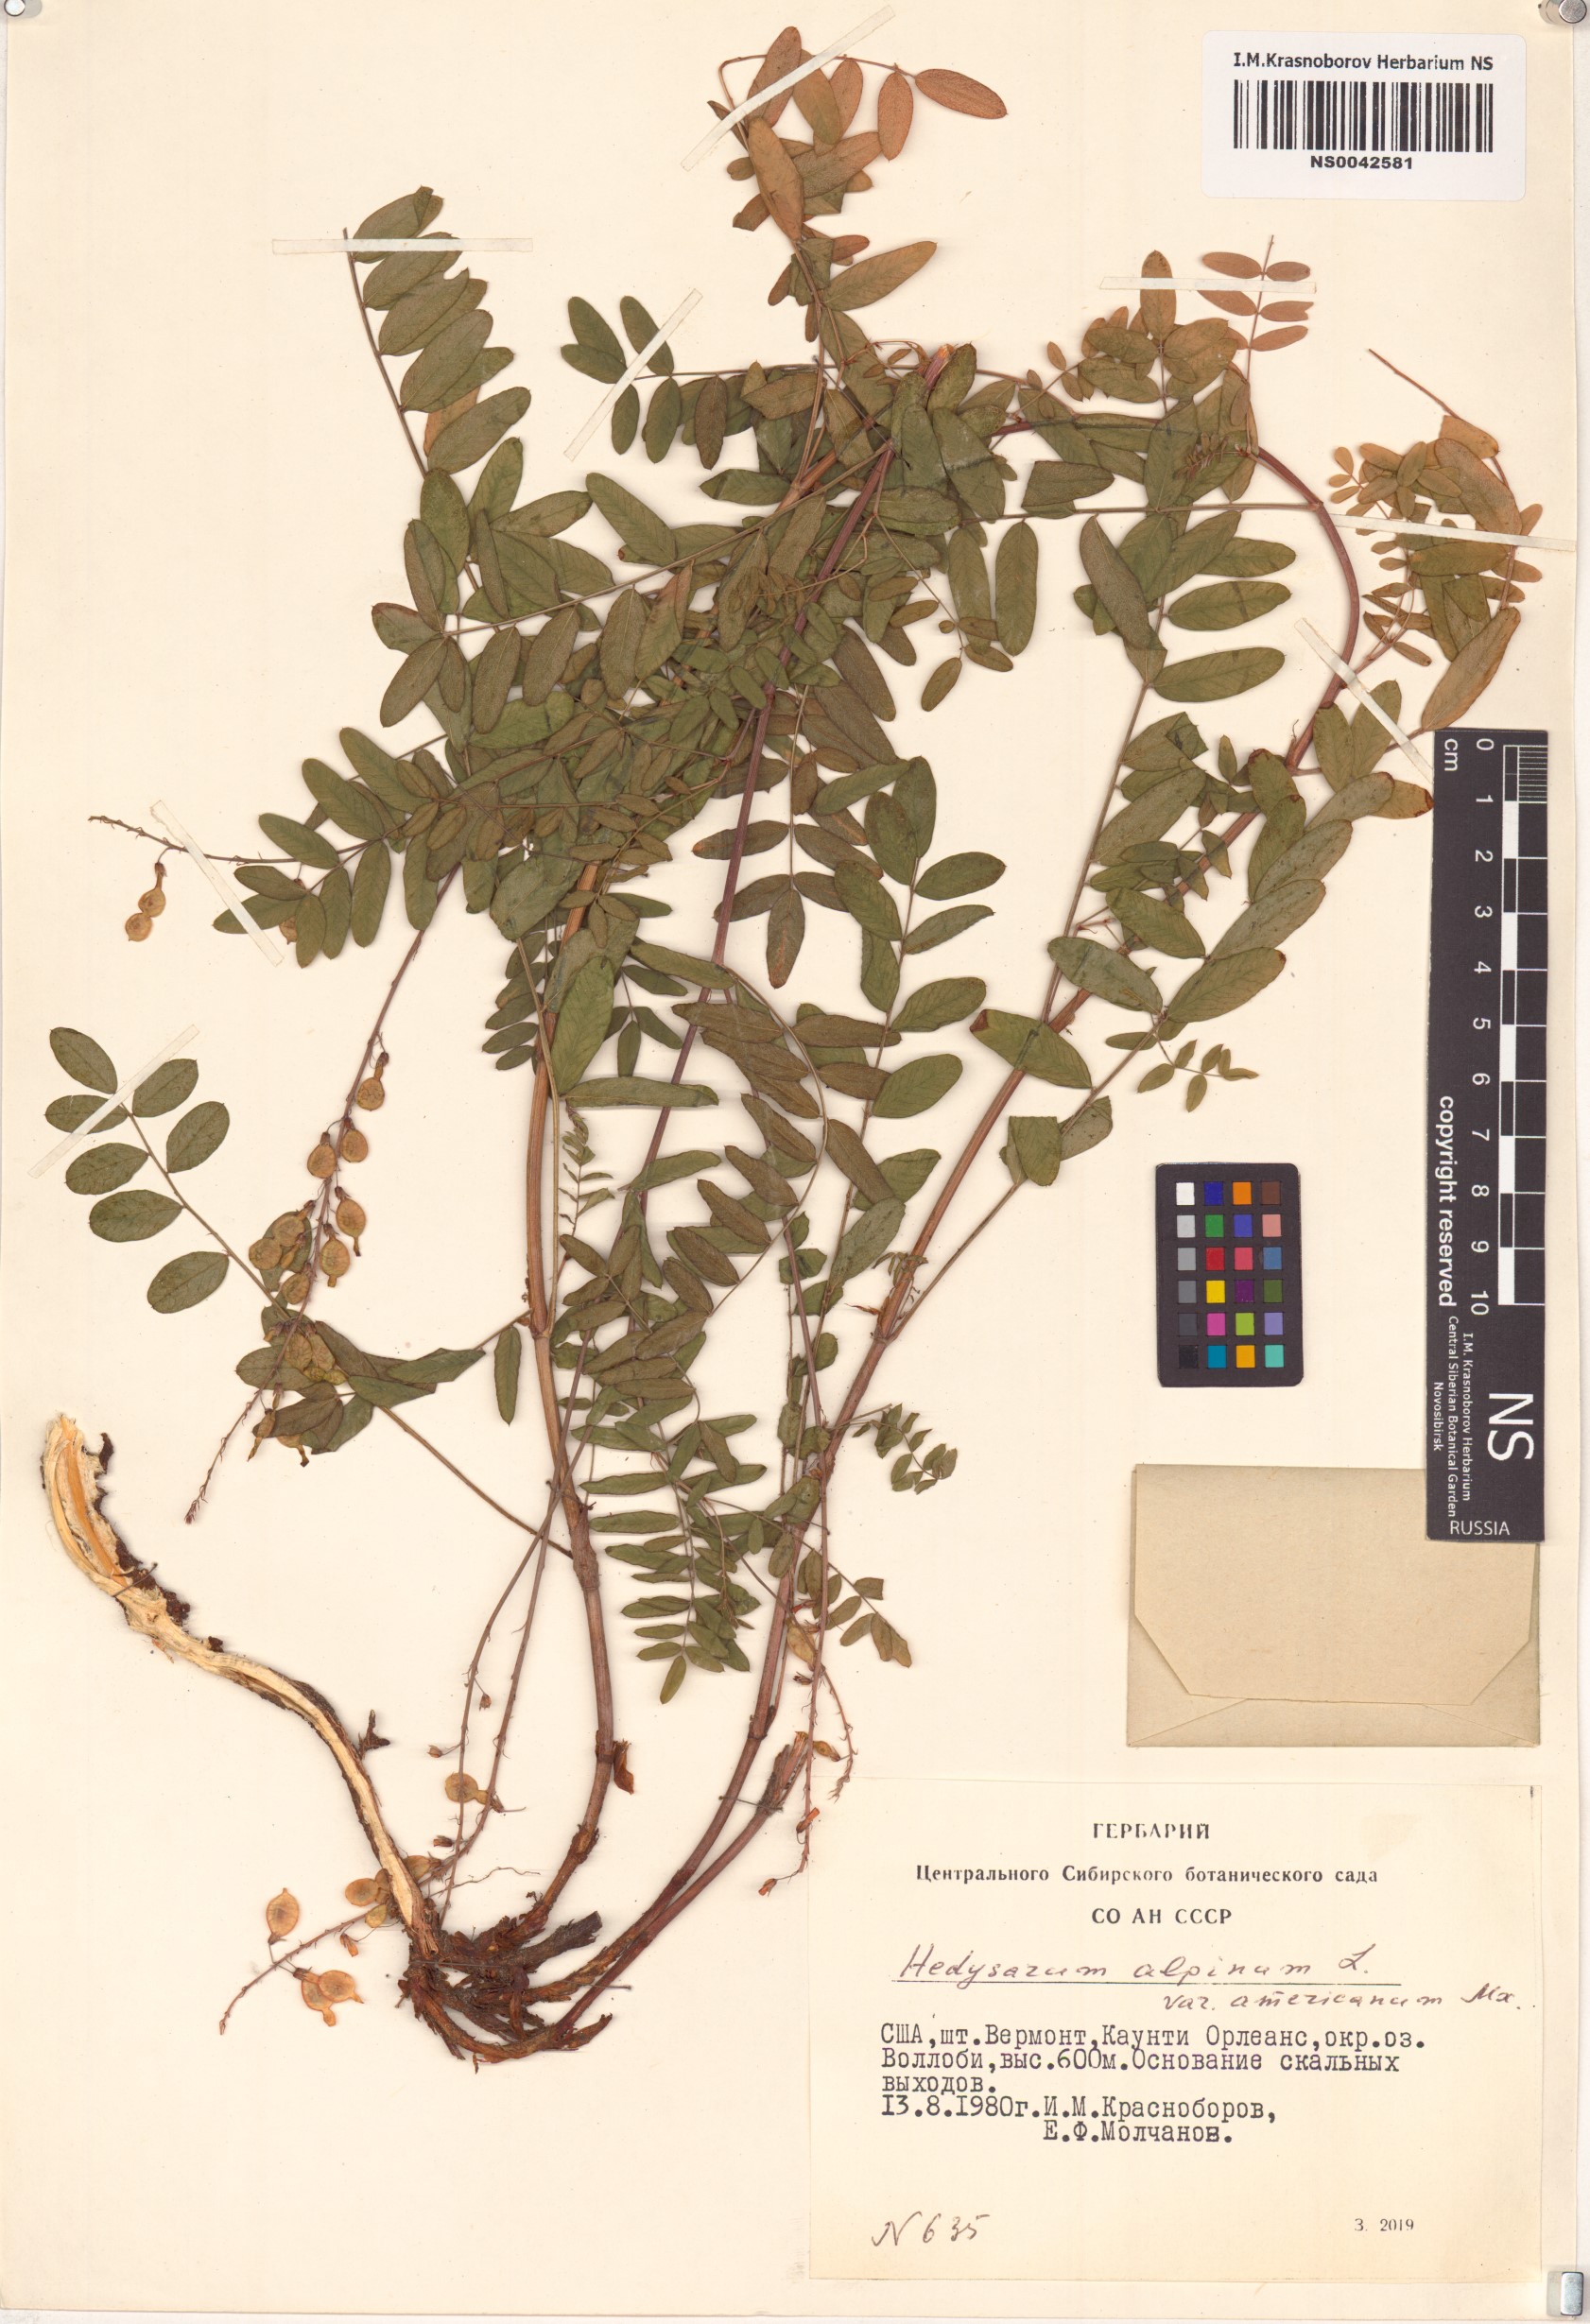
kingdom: Plantae
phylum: Tracheophyta
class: Magnoliopsida
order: Fabales
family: Fabaceae
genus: Hedysarum
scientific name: Hedysarum americanum
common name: Alpine hedysarum
